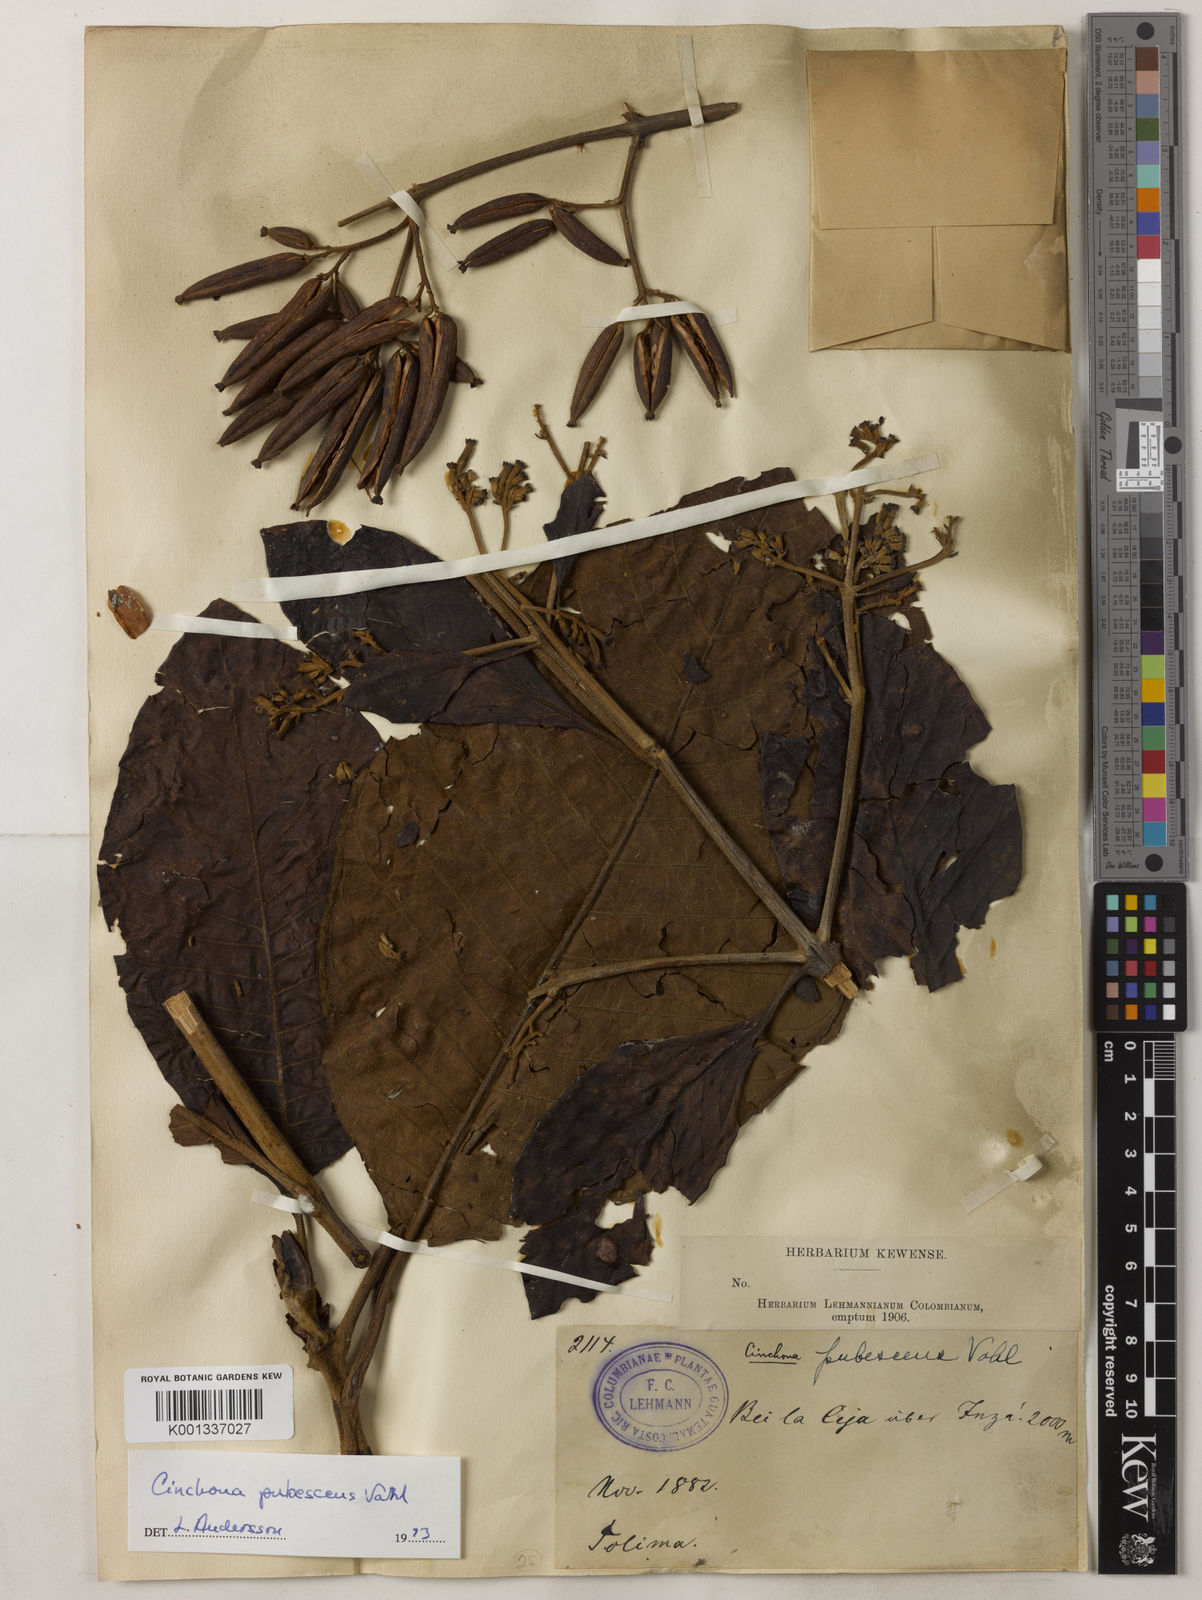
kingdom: Plantae
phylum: Tracheophyta
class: Magnoliopsida
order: Gentianales
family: Rubiaceae
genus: Cinchona
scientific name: Cinchona pubescens
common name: Quinine
